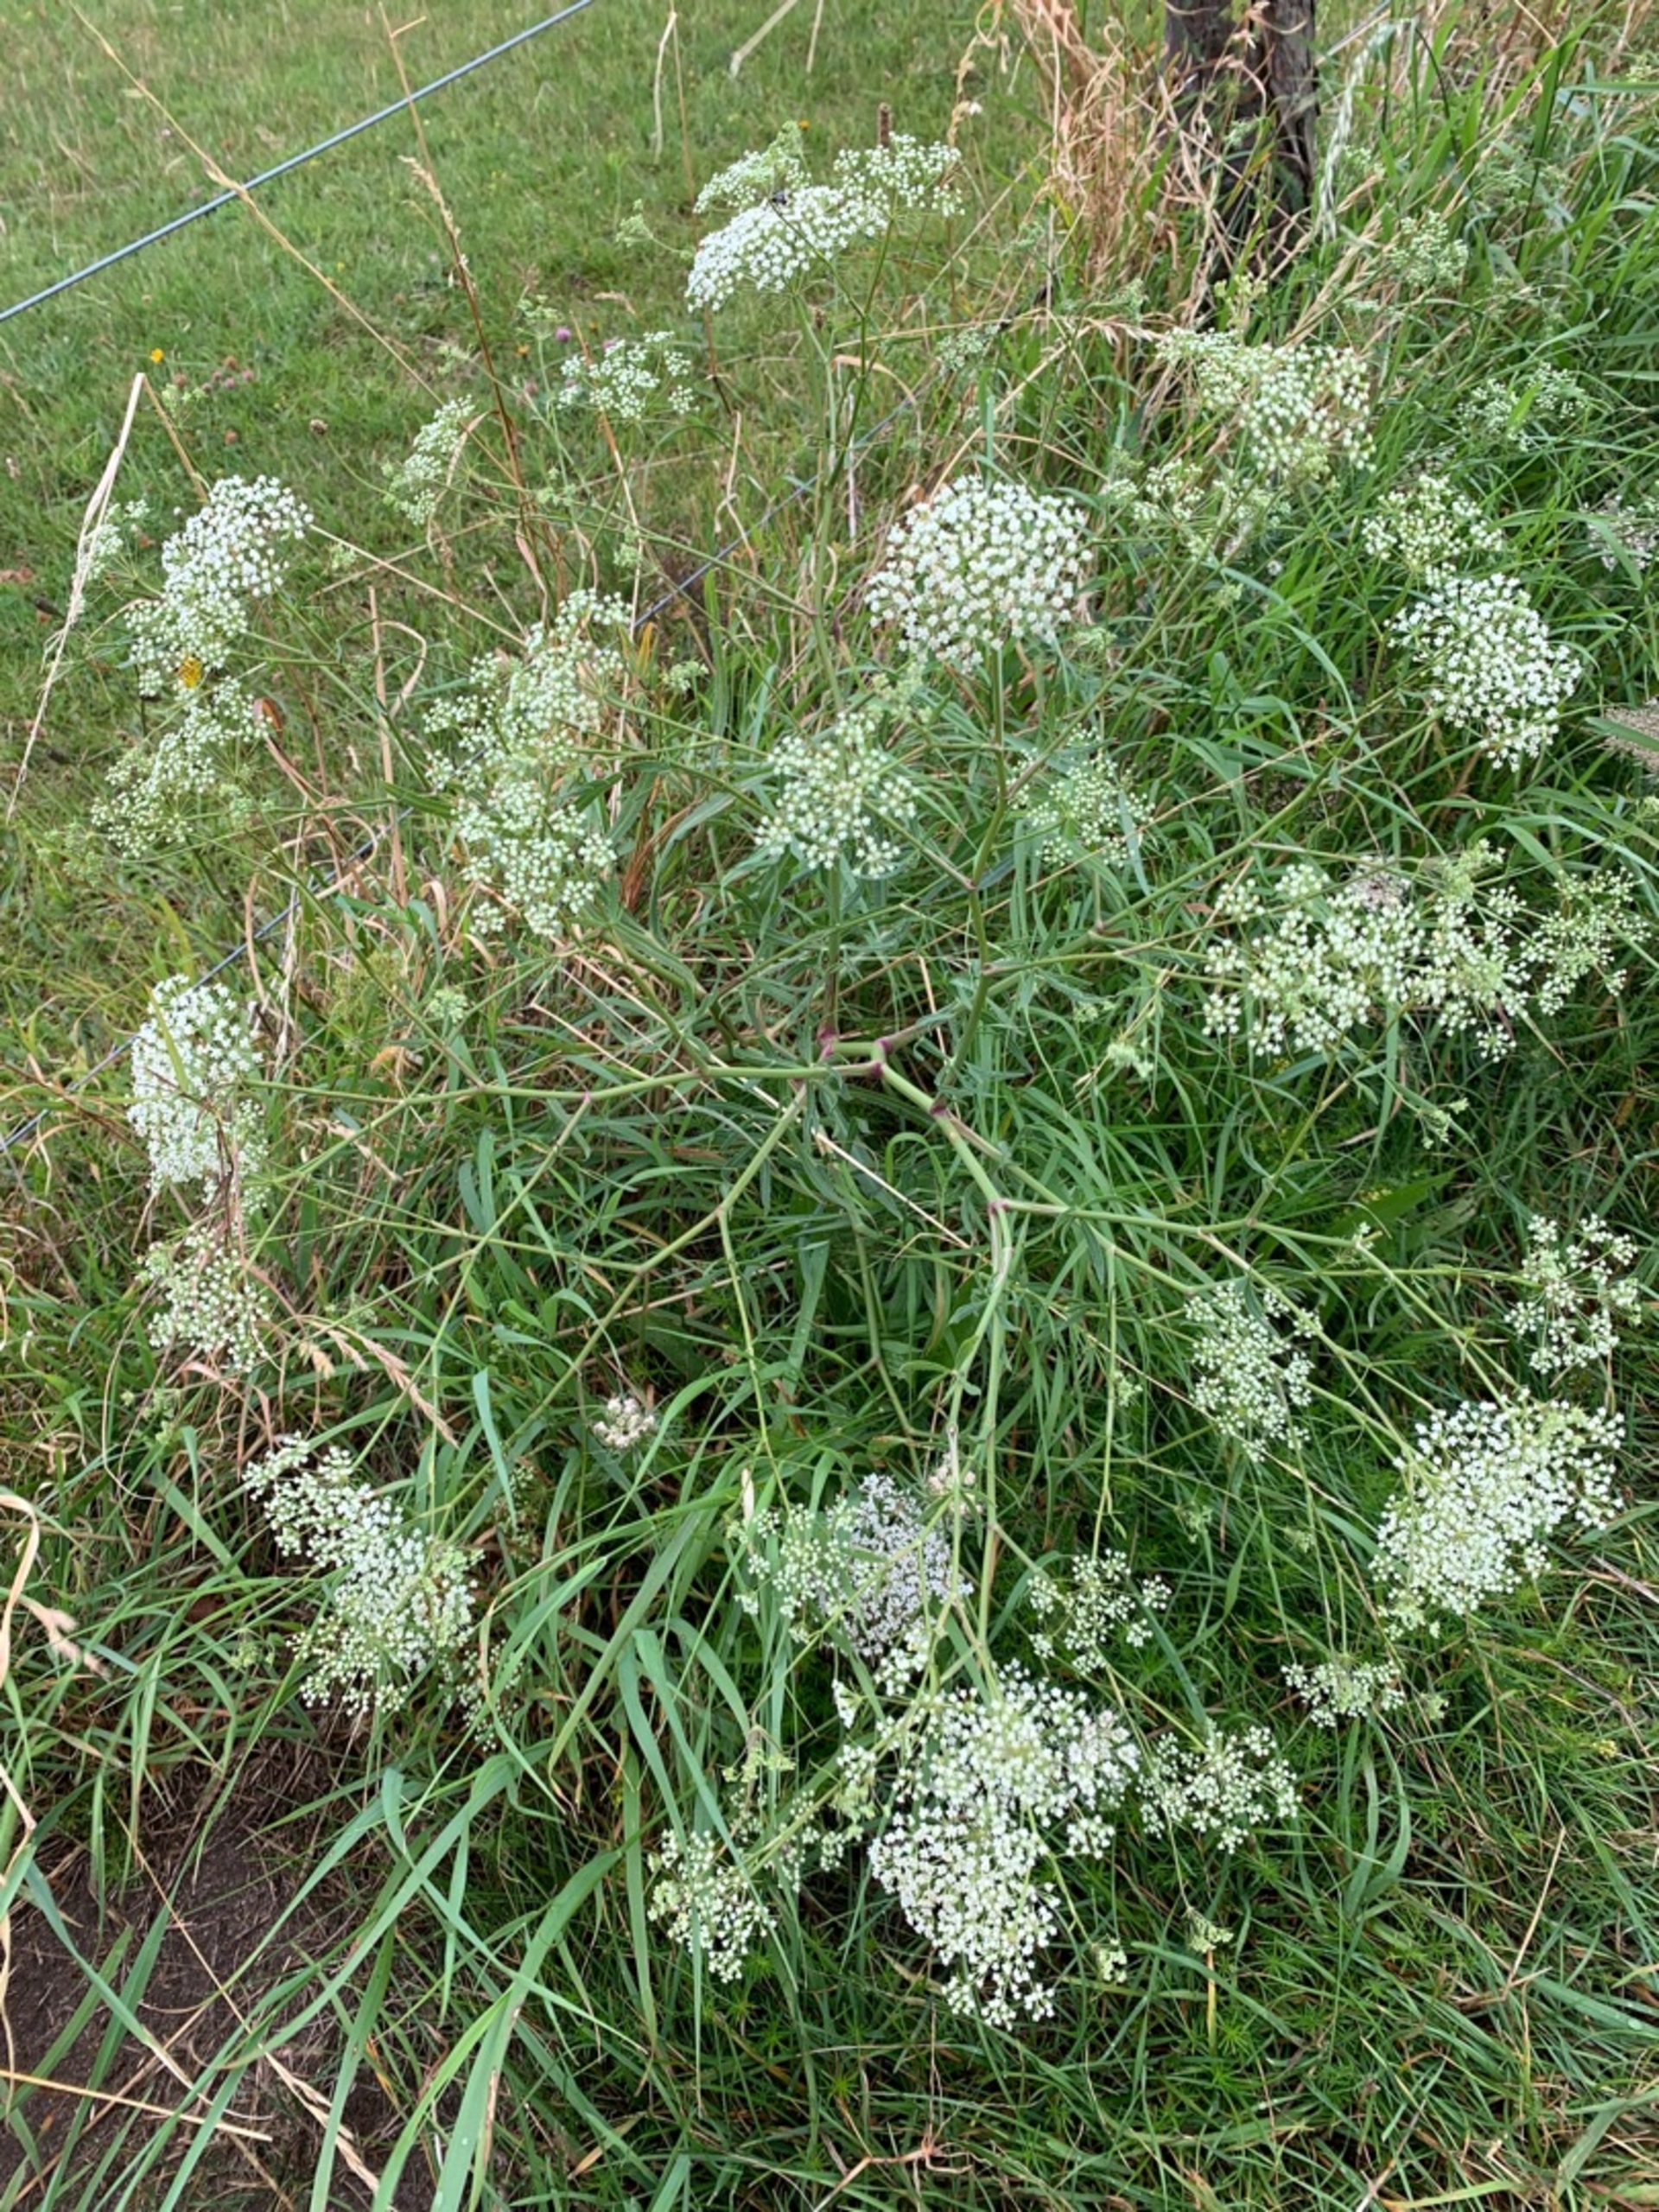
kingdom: Plantae
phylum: Tracheophyta
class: Magnoliopsida
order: Apiales
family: Apiaceae
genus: Falcaria
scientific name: Falcaria vulgaris
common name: Seglblad
